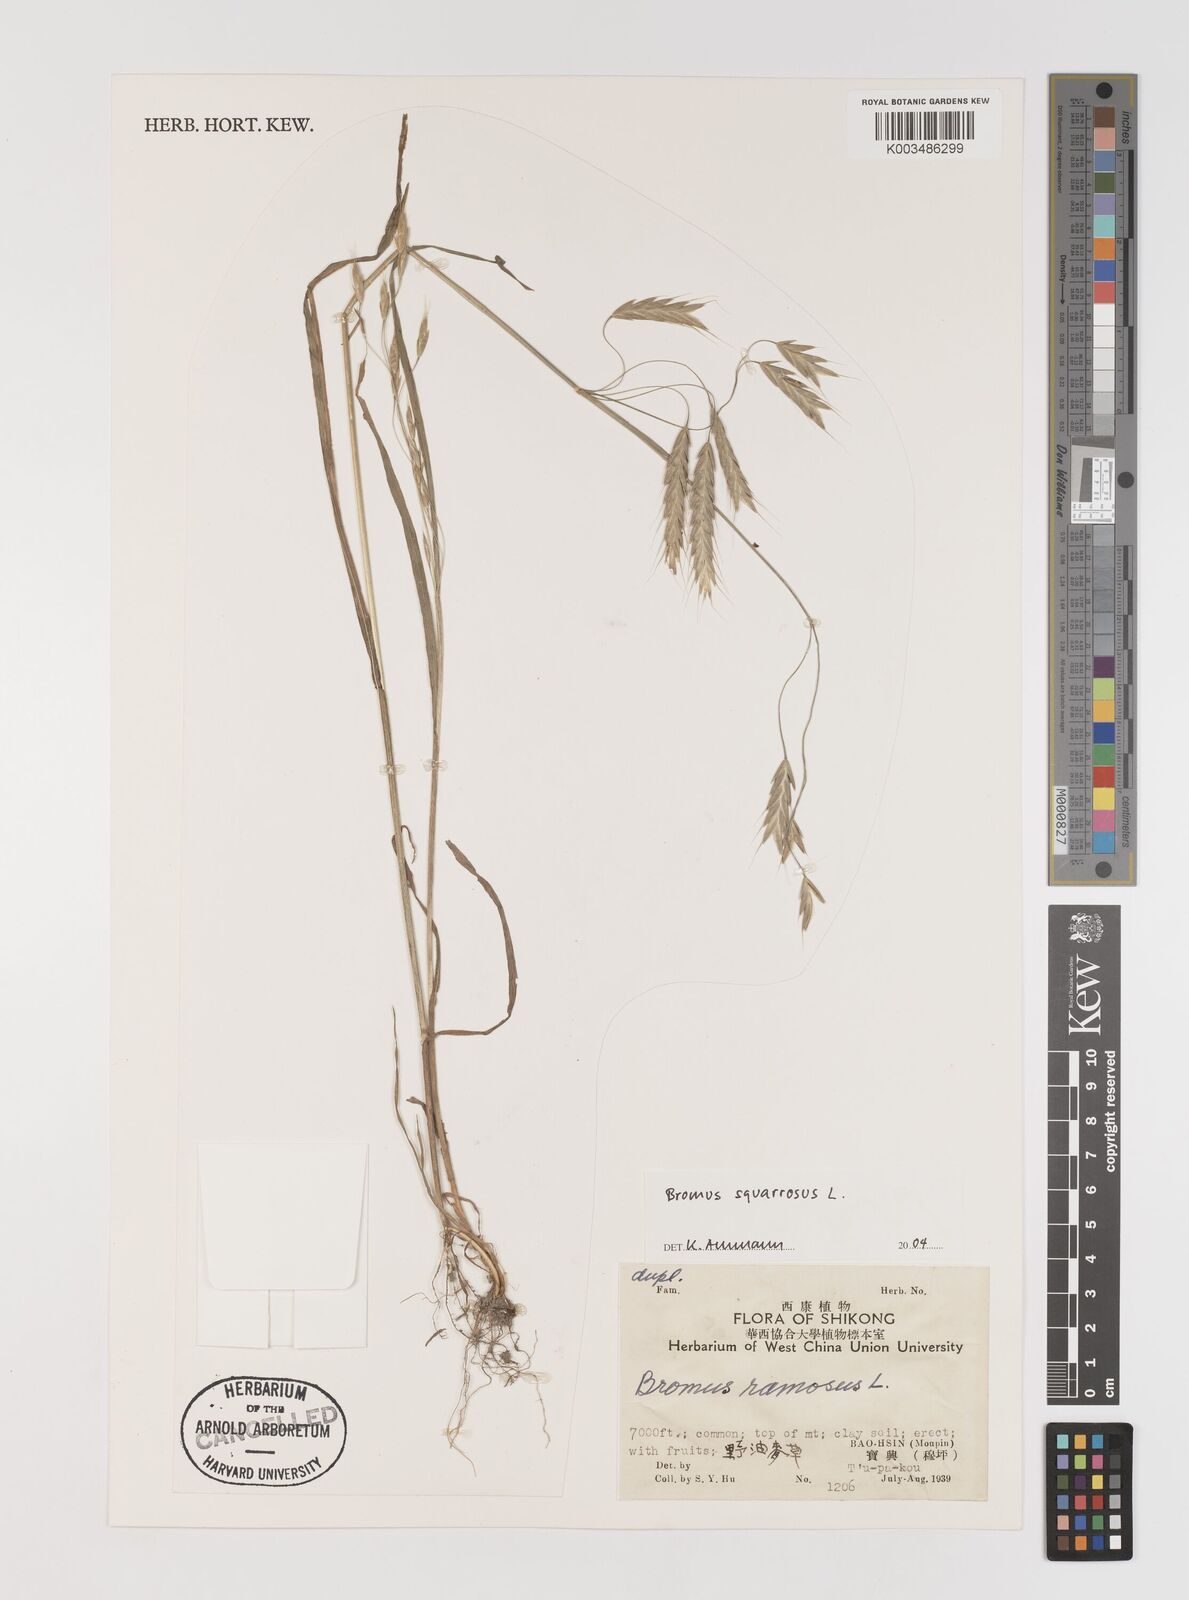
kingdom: Plantae
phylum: Tracheophyta
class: Liliopsida
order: Poales
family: Poaceae
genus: Bromus
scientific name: Bromus squarrosus
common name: Corn brome
